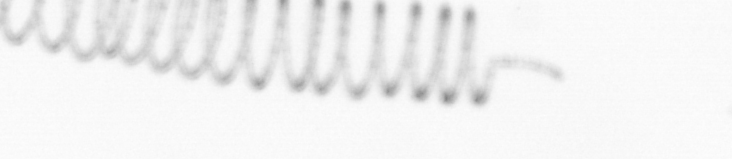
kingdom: Chromista
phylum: Ochrophyta
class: Bacillariophyceae
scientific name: Bacillariophyceae
